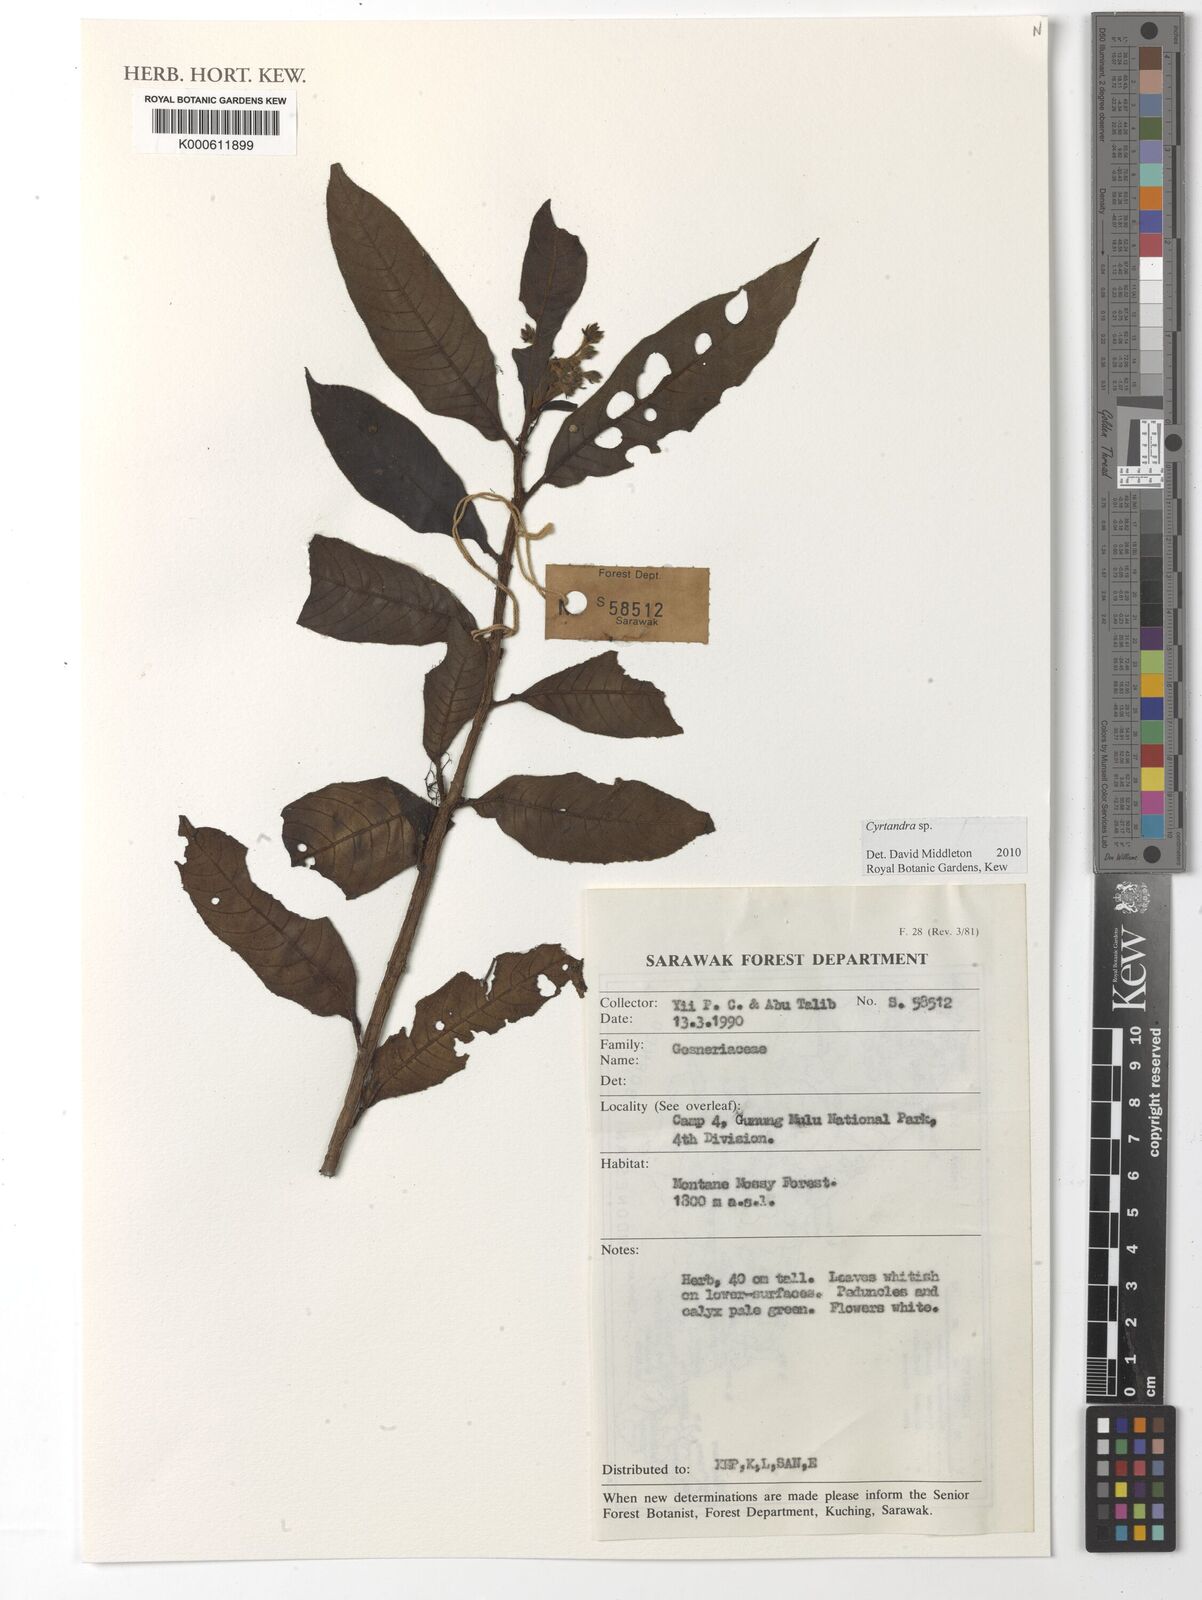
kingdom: Plantae
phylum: Tracheophyta
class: Magnoliopsida
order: Lamiales
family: Gesneriaceae
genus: Cyrtandra
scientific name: Cyrtandra
